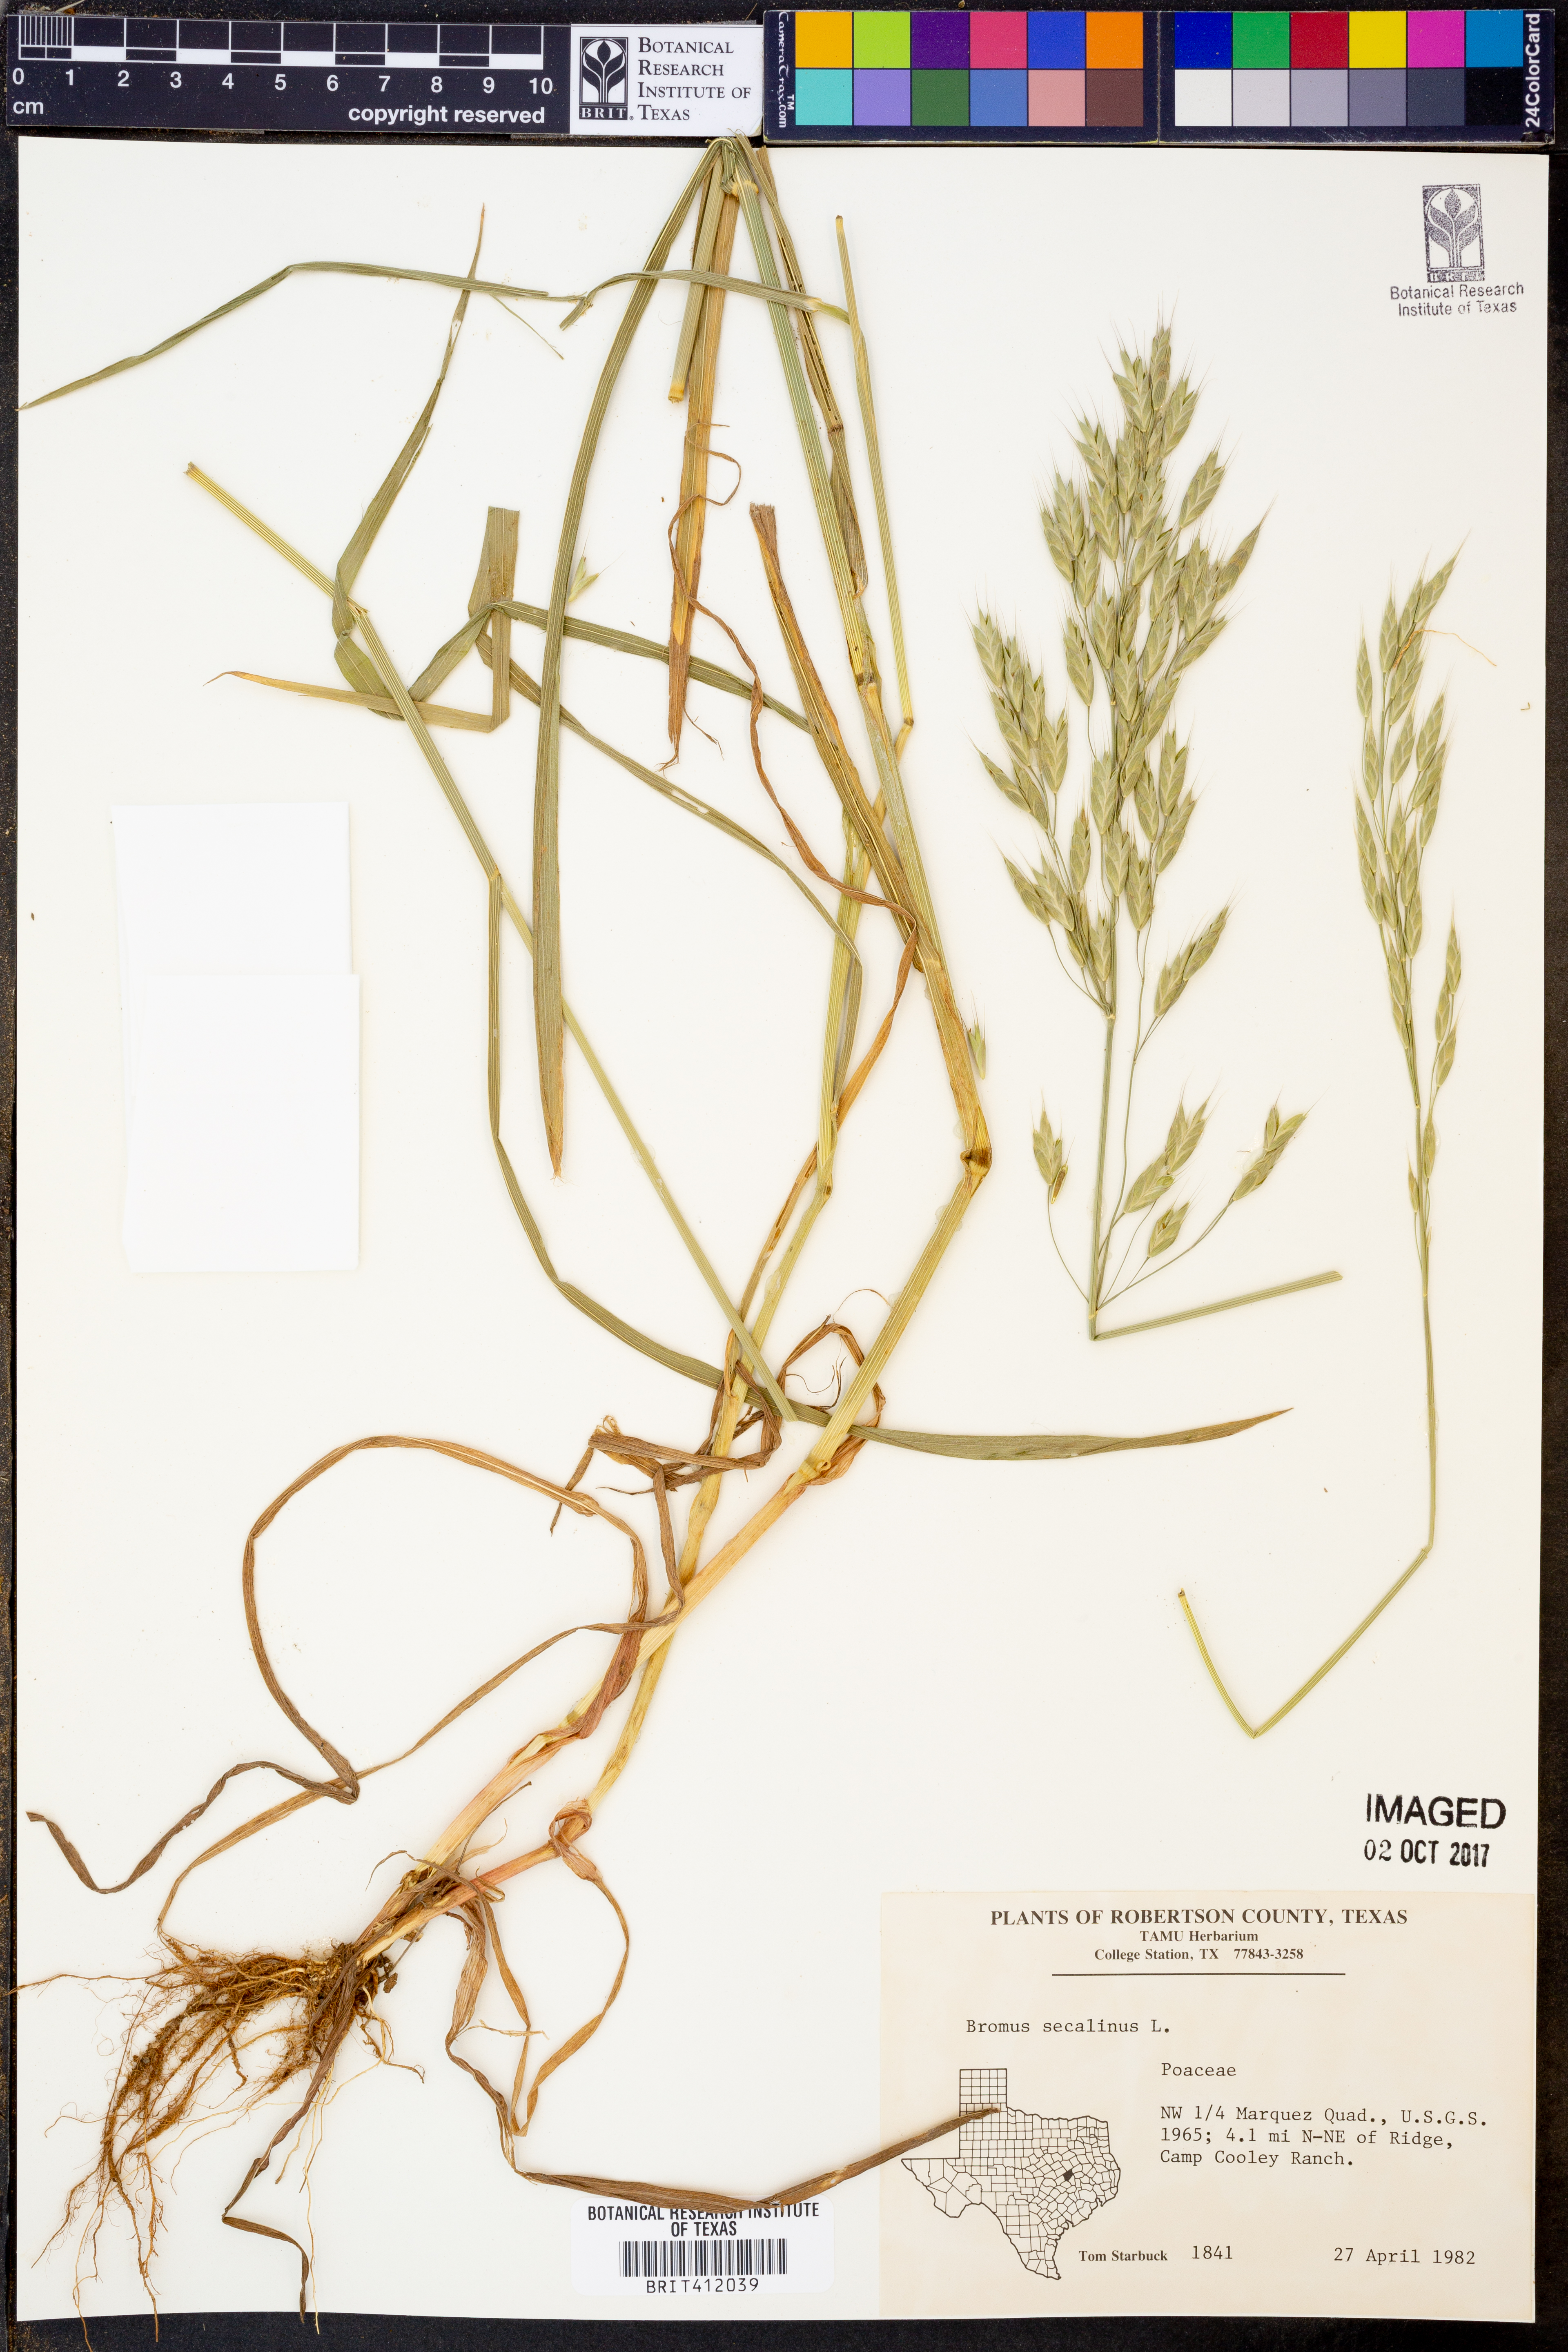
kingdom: Plantae
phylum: Tracheophyta
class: Liliopsida
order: Poales
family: Poaceae
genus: Bromus
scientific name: Bromus secalinus
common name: Rye brome
